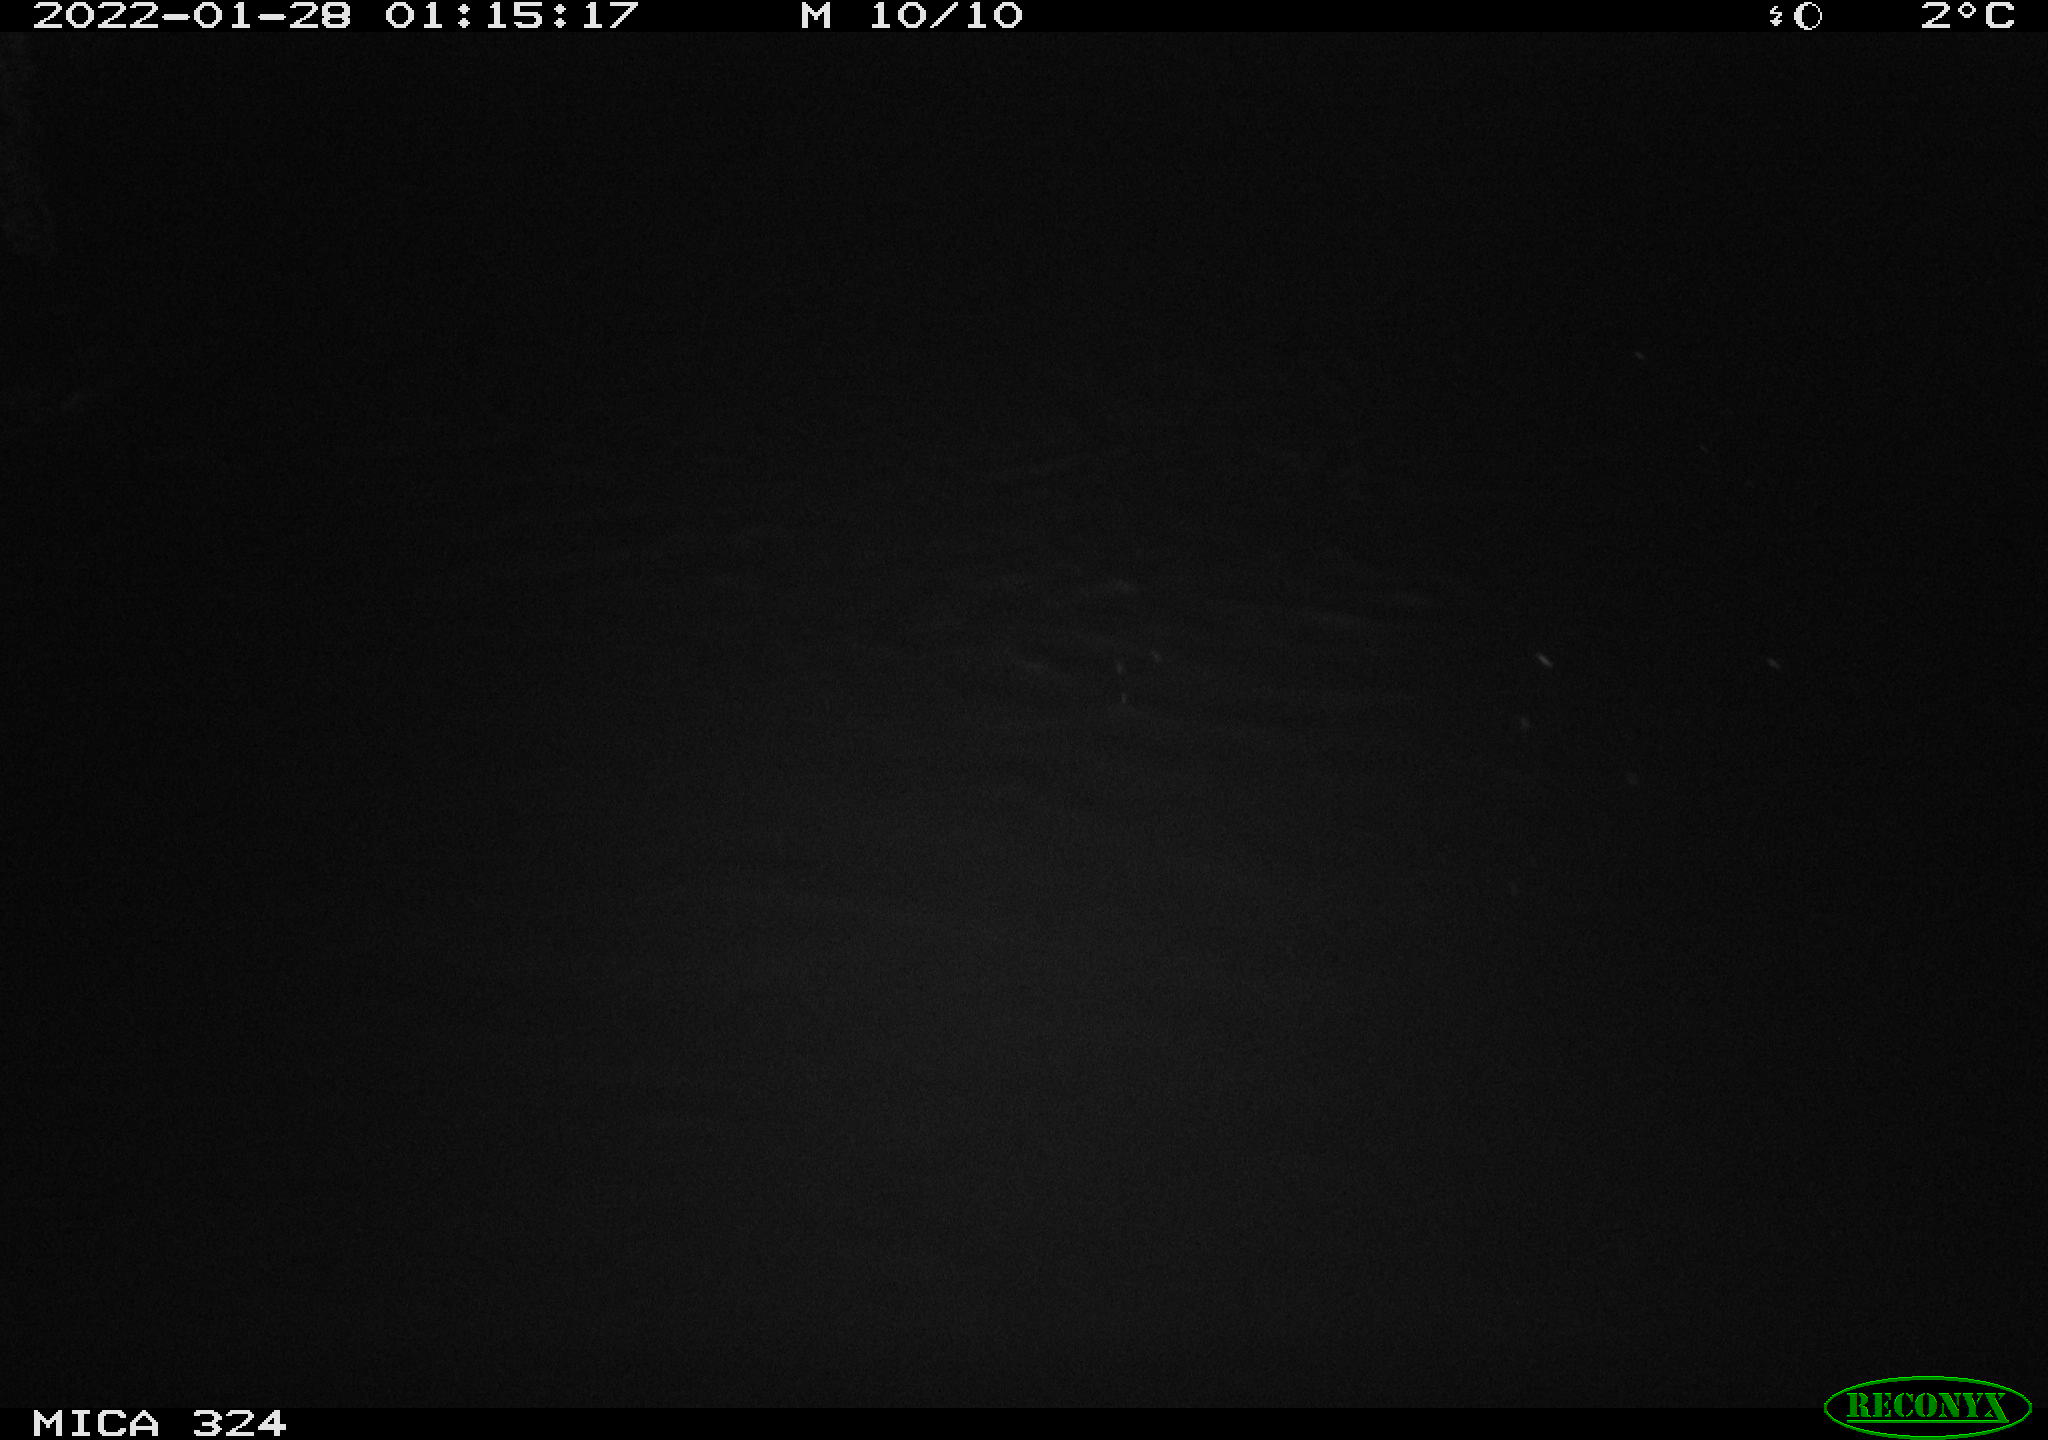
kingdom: Animalia
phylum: Chordata
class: Mammalia
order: Rodentia
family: Cricetidae
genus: Ondatra
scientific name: Ondatra zibethicus
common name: Muskrat
